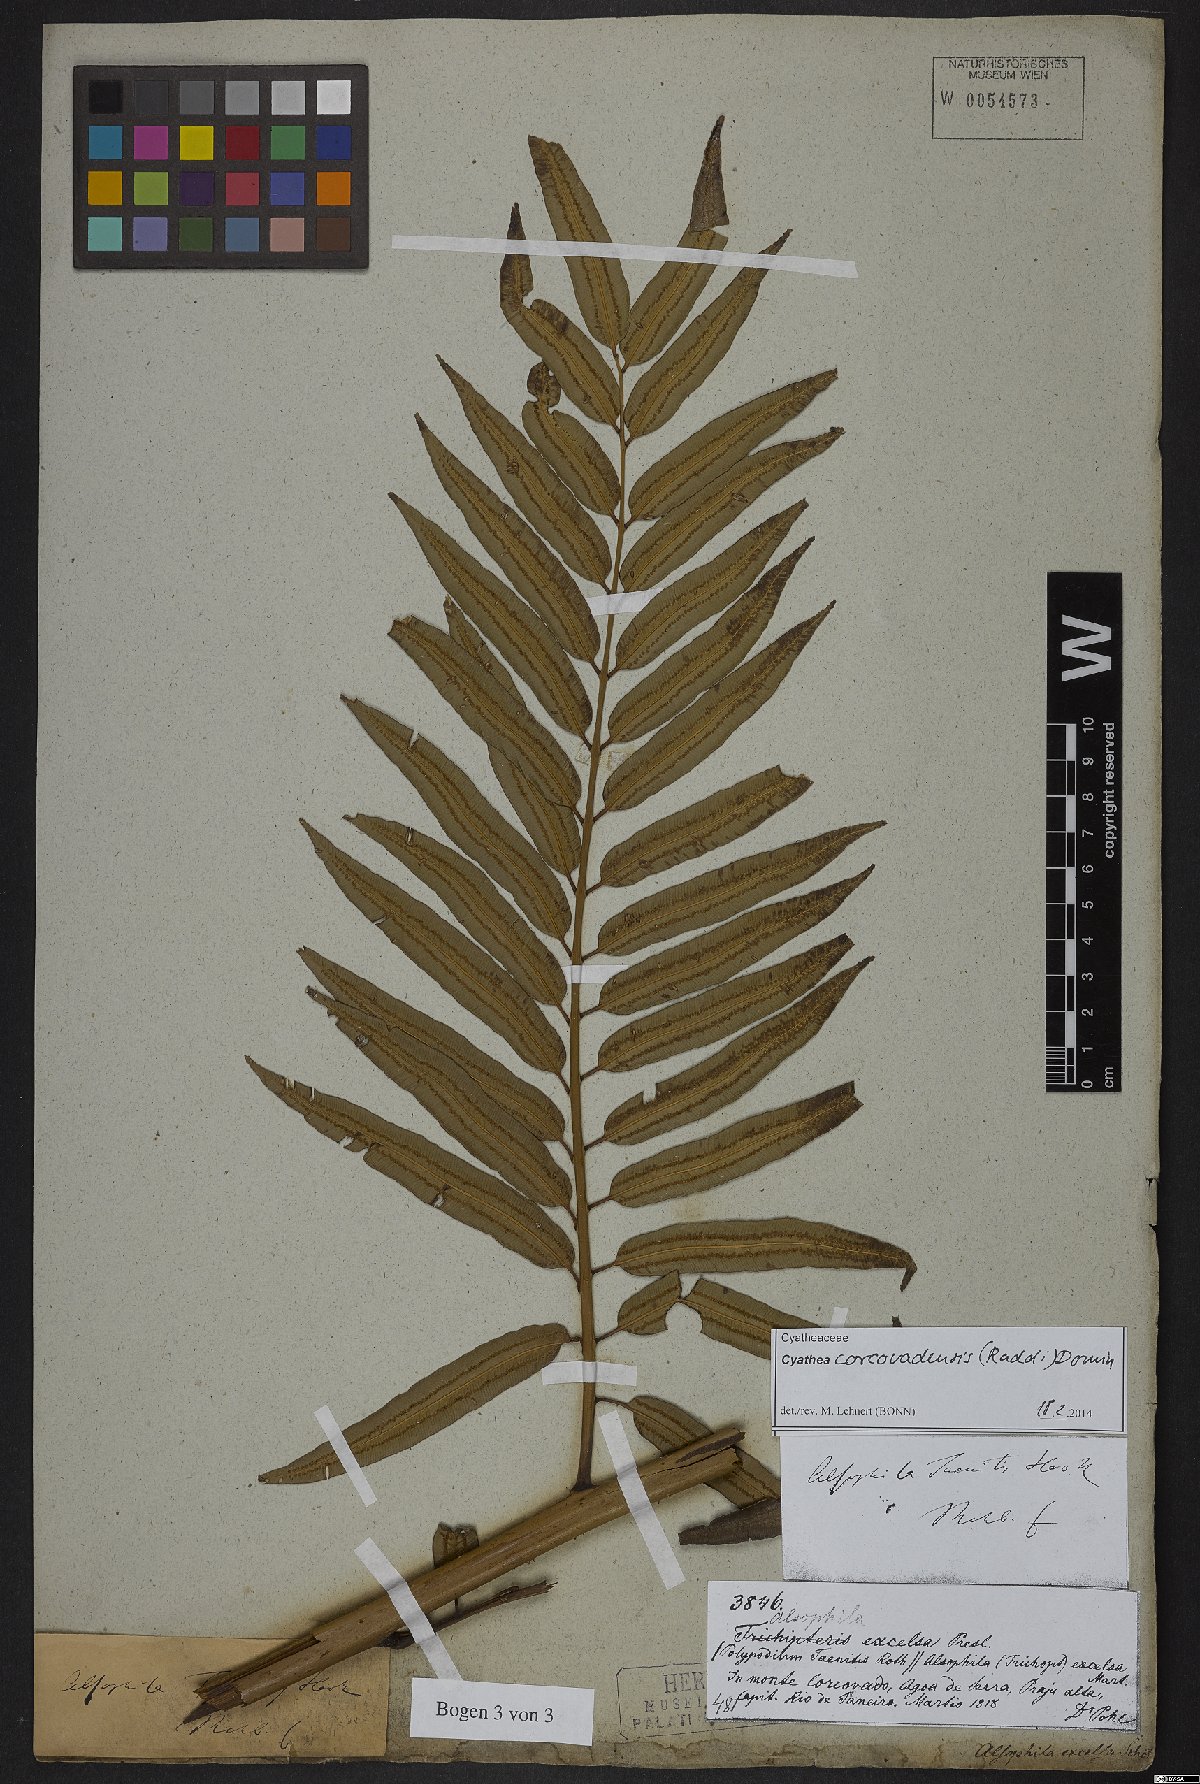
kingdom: Plantae
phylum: Tracheophyta
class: Polypodiopsida
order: Cyatheales
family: Cyatheaceae
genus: Cyathea
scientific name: Cyathea corcovadensis
